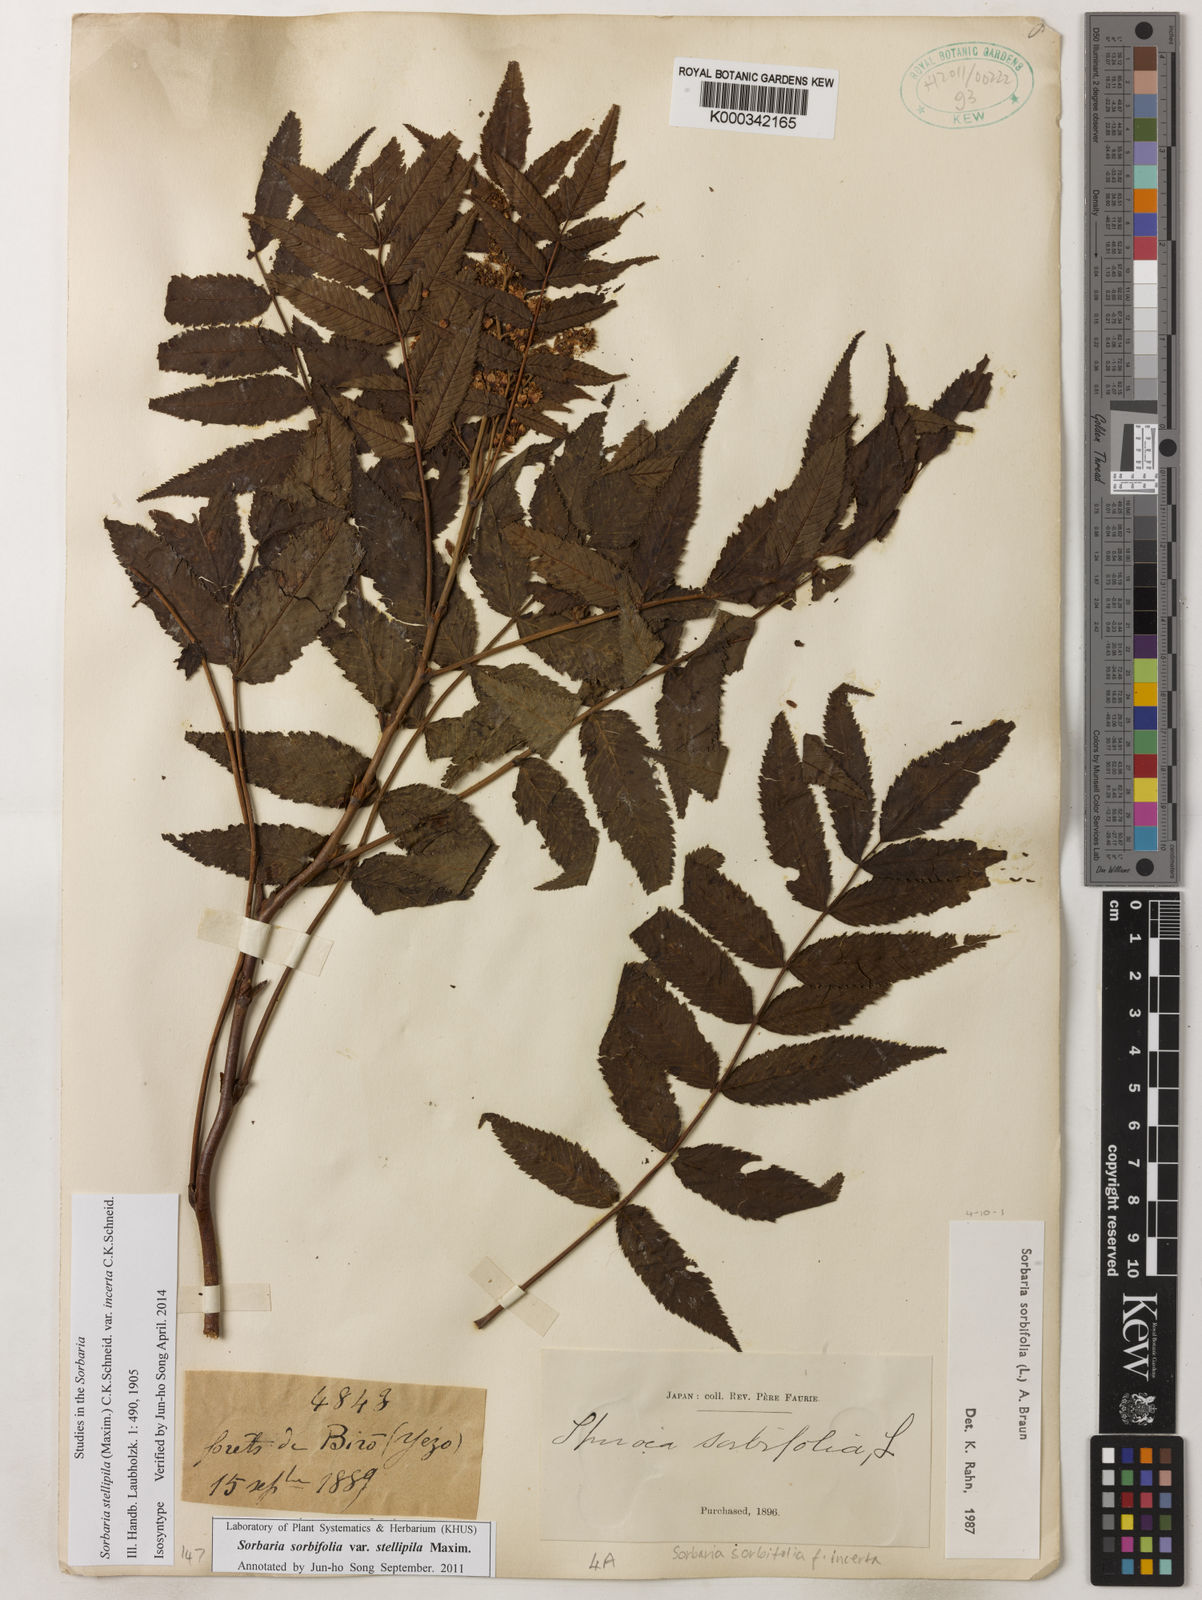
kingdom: Plantae
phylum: Tracheophyta
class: Magnoliopsida
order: Rosales
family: Rosaceae
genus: Sorbaria
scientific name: Sorbaria sorbifolia
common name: False spiraea
